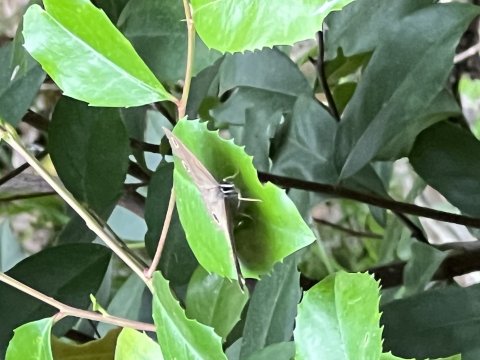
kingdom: Animalia
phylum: Arthropoda
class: Insecta
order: Lepidoptera
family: Nymphalidae
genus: Euptychia
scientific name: Euptychia cymela
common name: Little Wood Satyr
